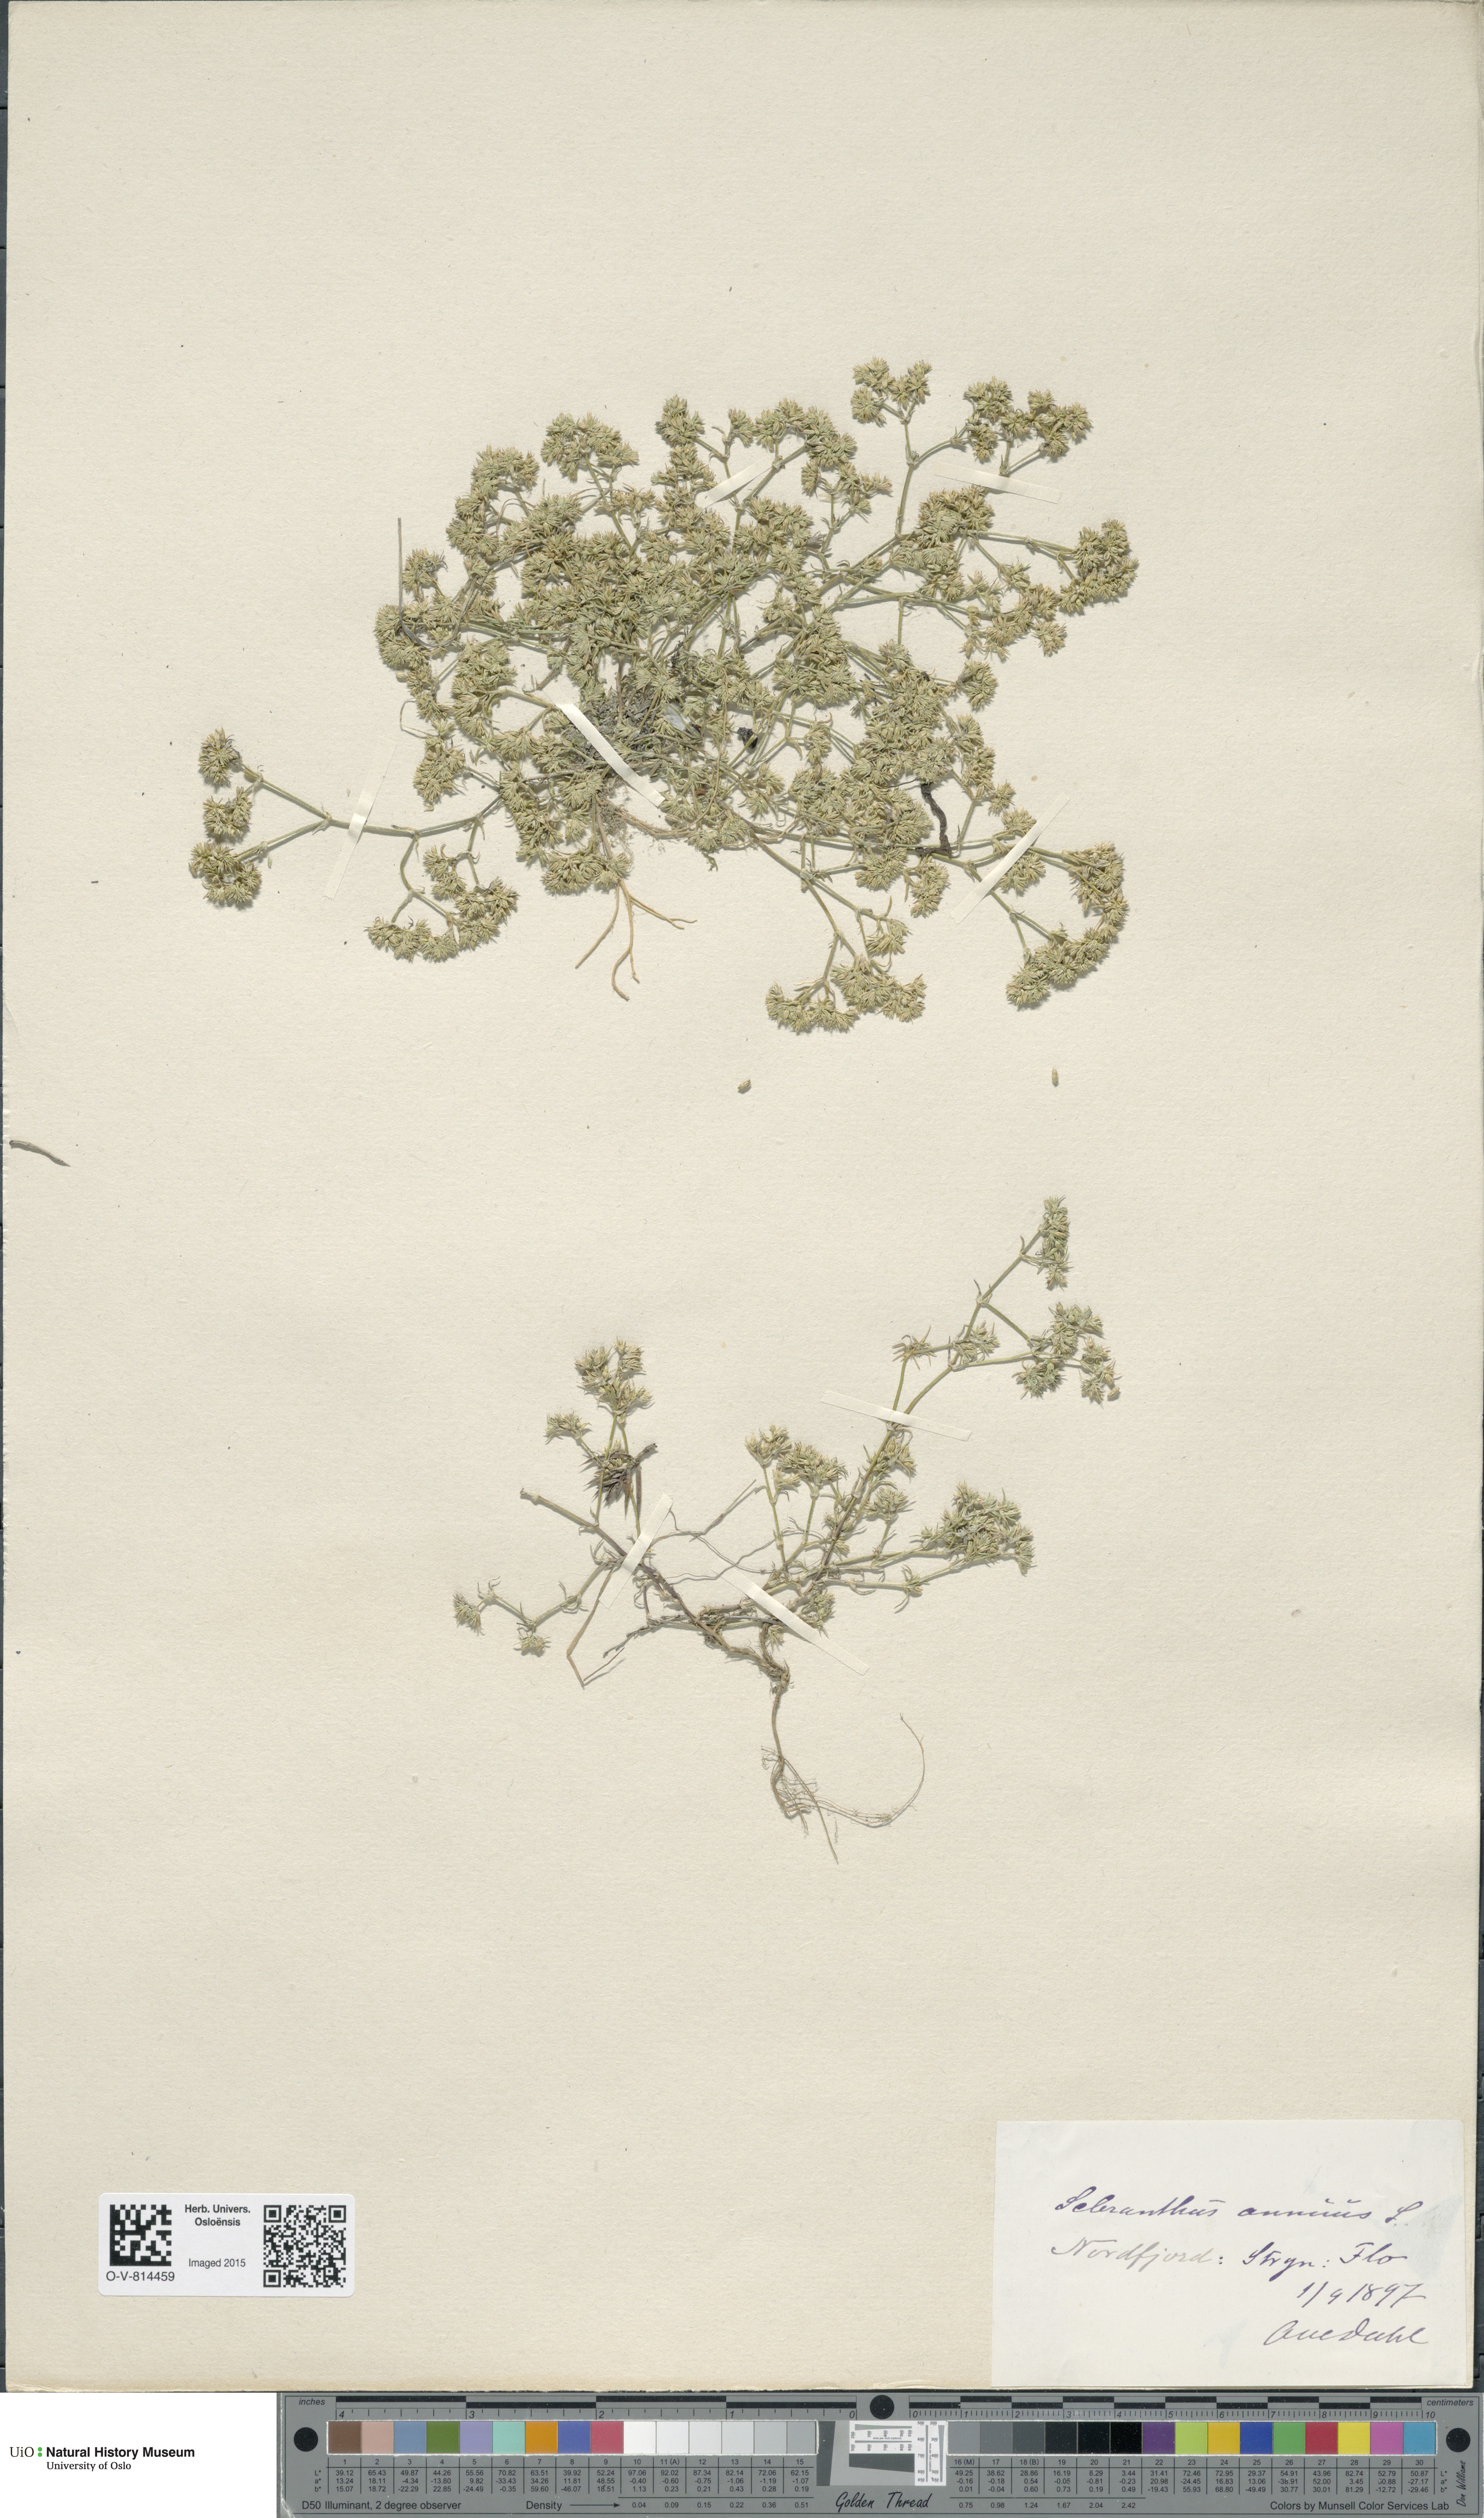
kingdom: Plantae
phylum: Tracheophyta
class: Magnoliopsida
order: Caryophyllales
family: Caryophyllaceae
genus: Scleranthus
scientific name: Scleranthus annuus
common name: Annual knawel
